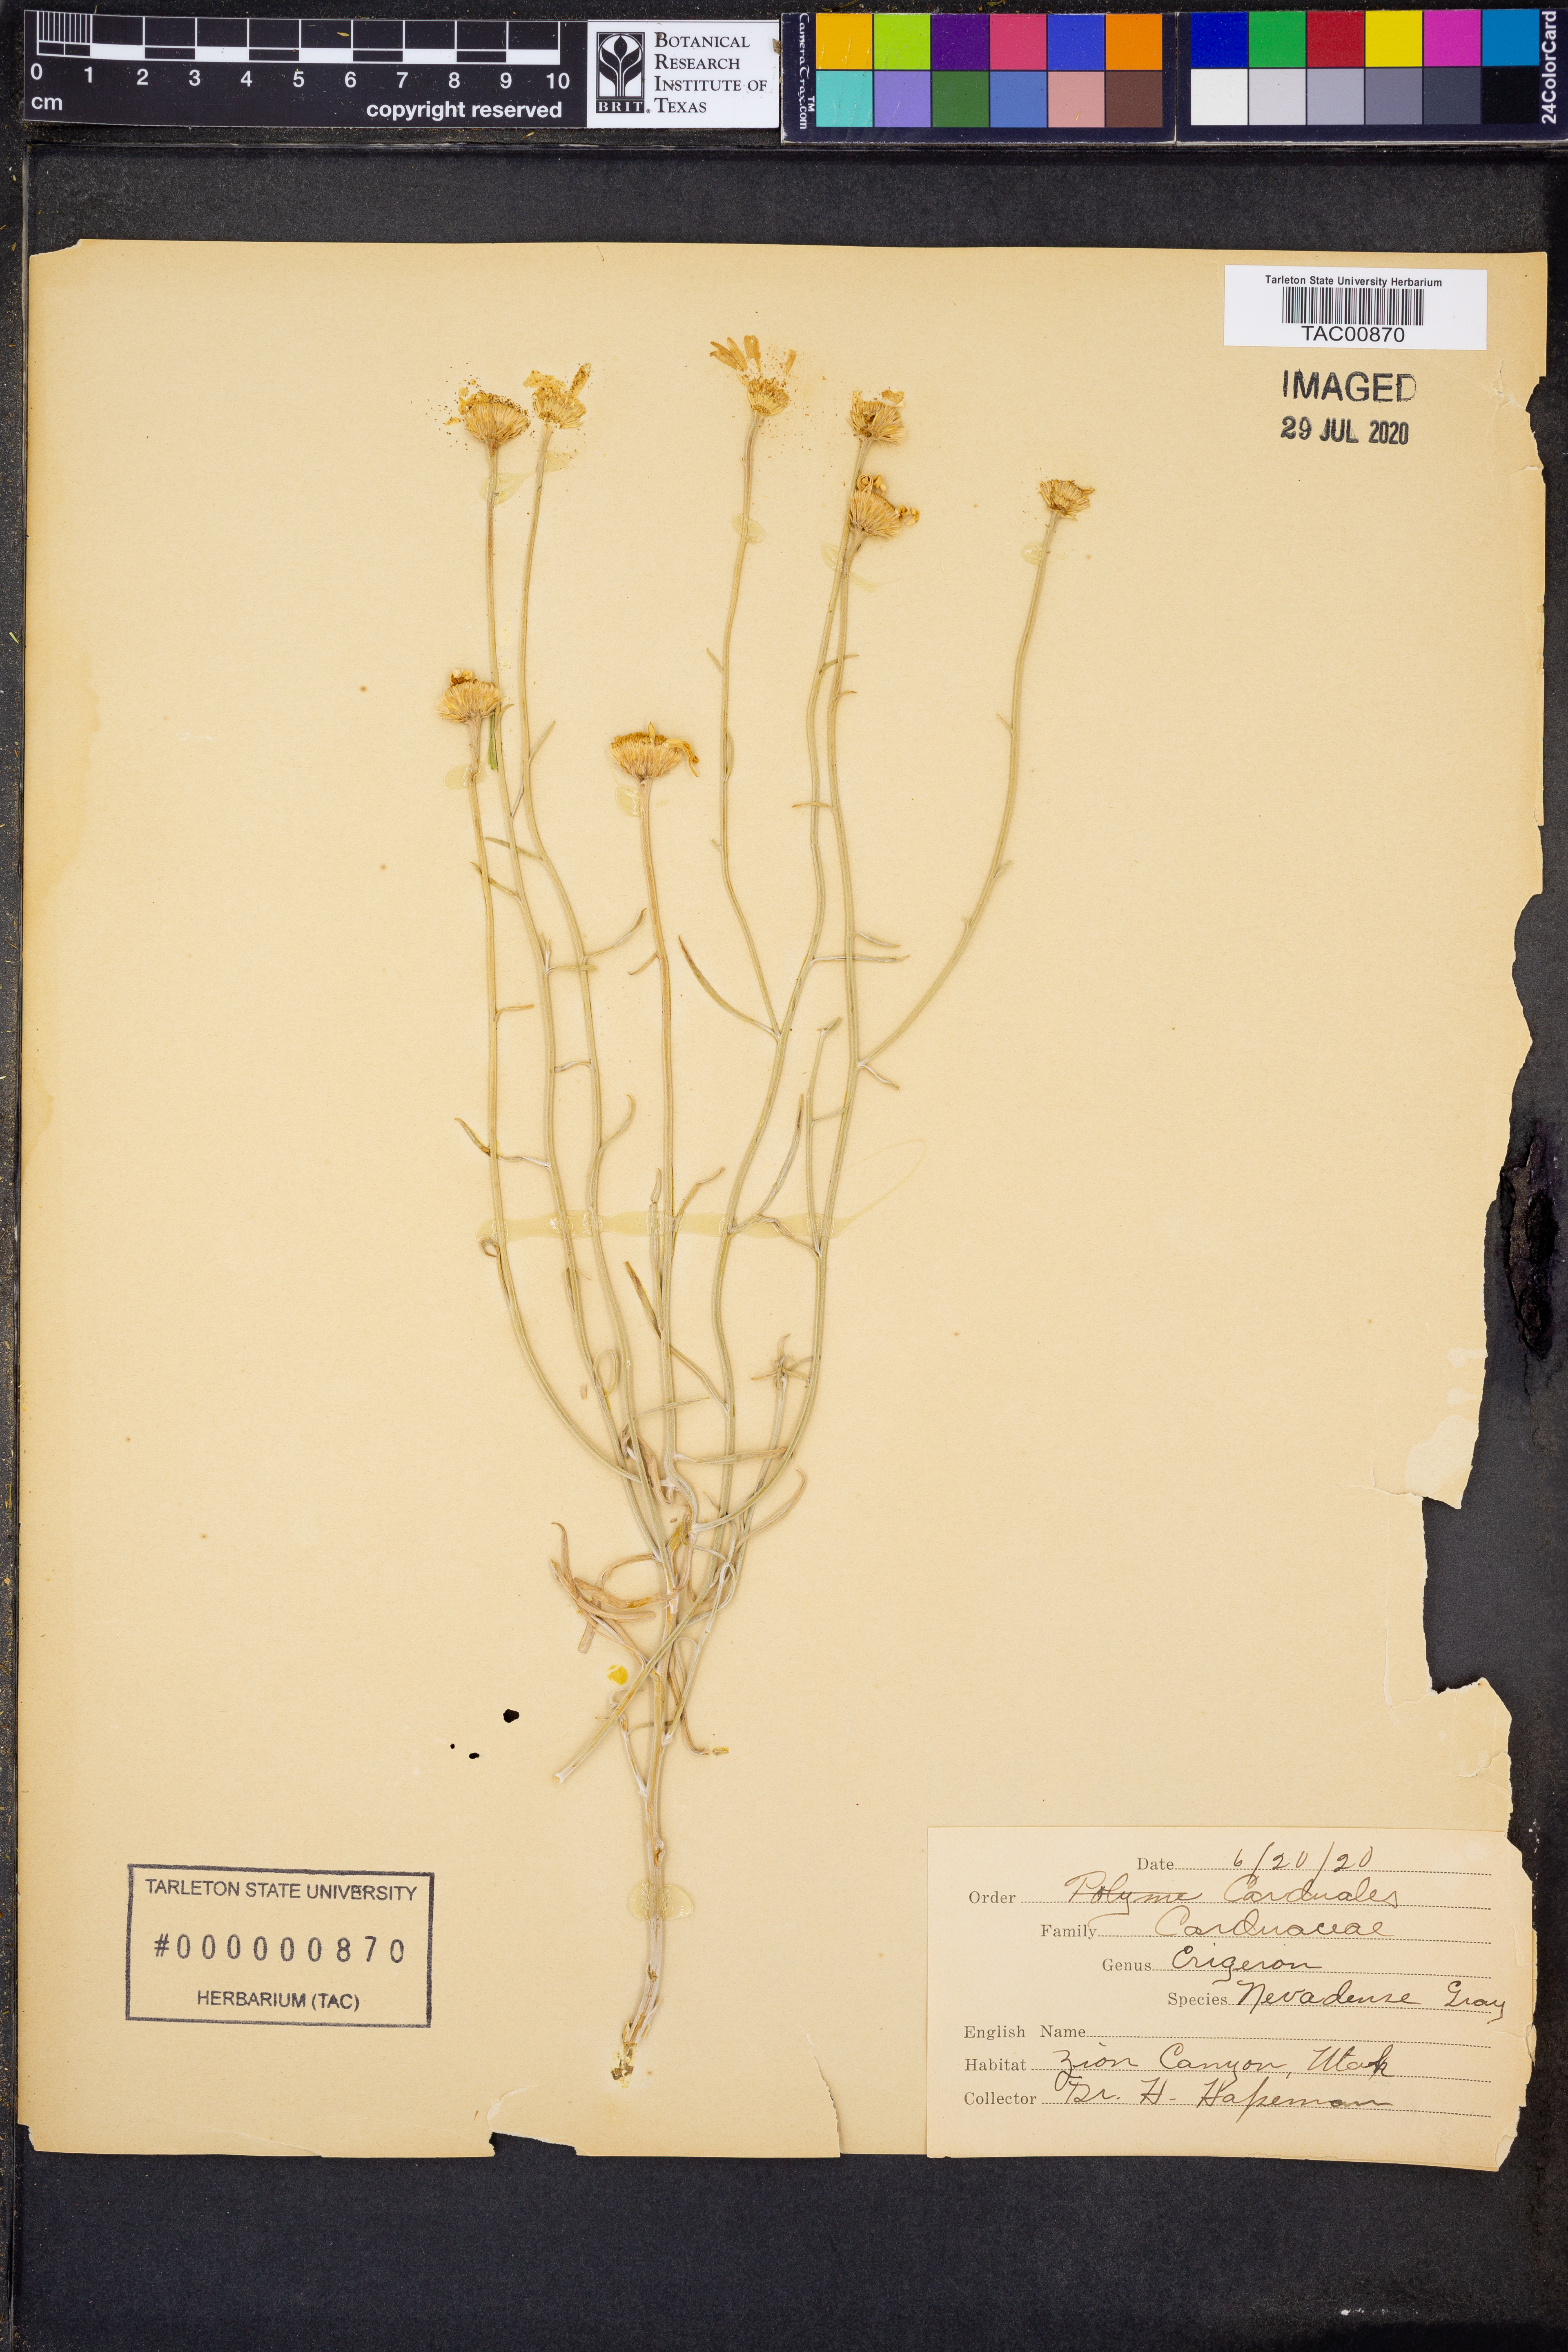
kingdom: Plantae
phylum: Tracheophyta
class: Magnoliopsida
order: Asterales
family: Asteraceae
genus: Erigeron
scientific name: Erigeron granatensis
